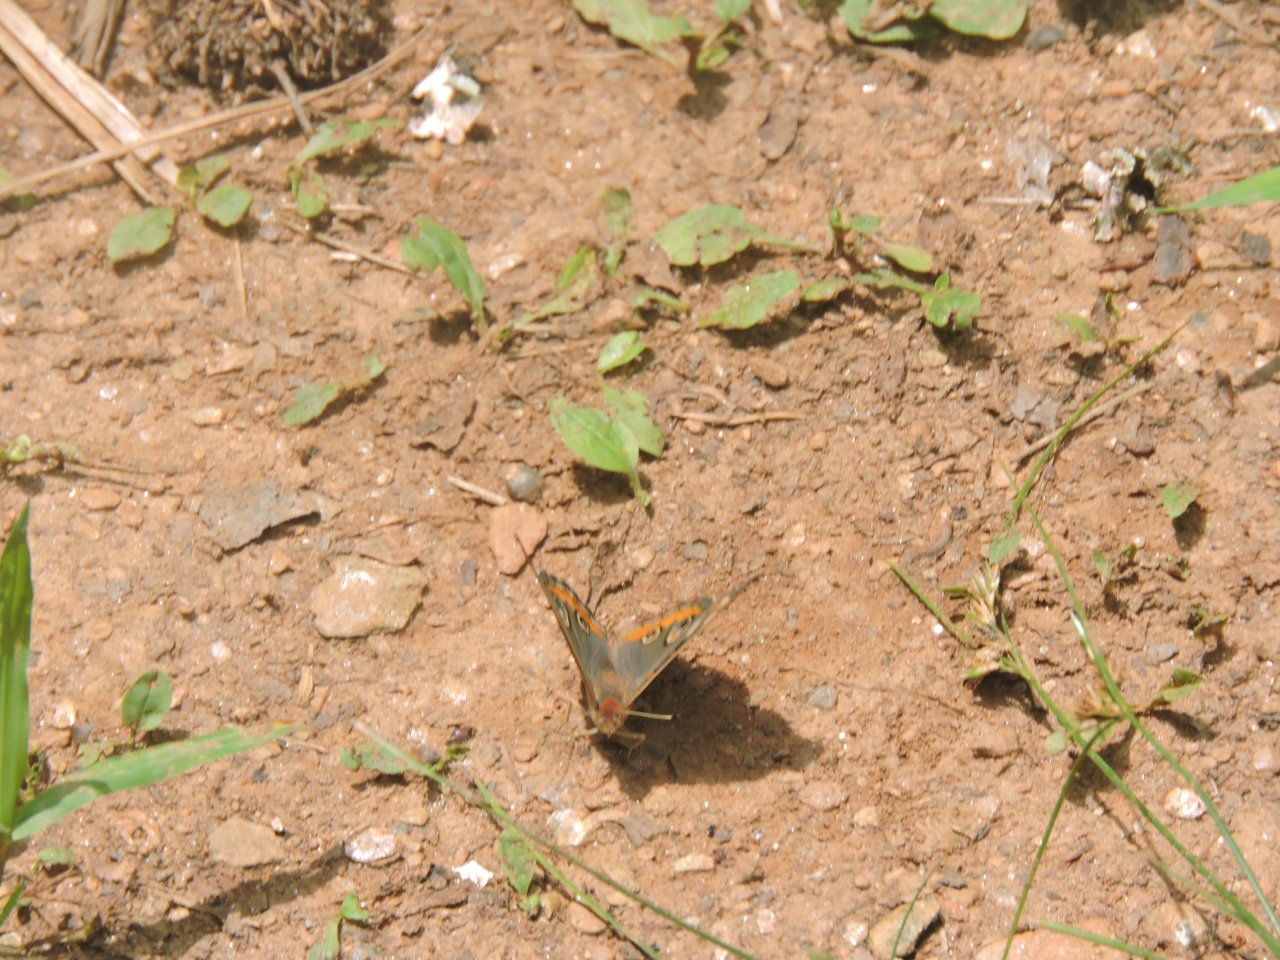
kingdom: Animalia
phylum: Arthropoda
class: Insecta
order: Lepidoptera
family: Nymphalidae
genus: Junonia
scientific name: Junonia coenia
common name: Common Buckeye
